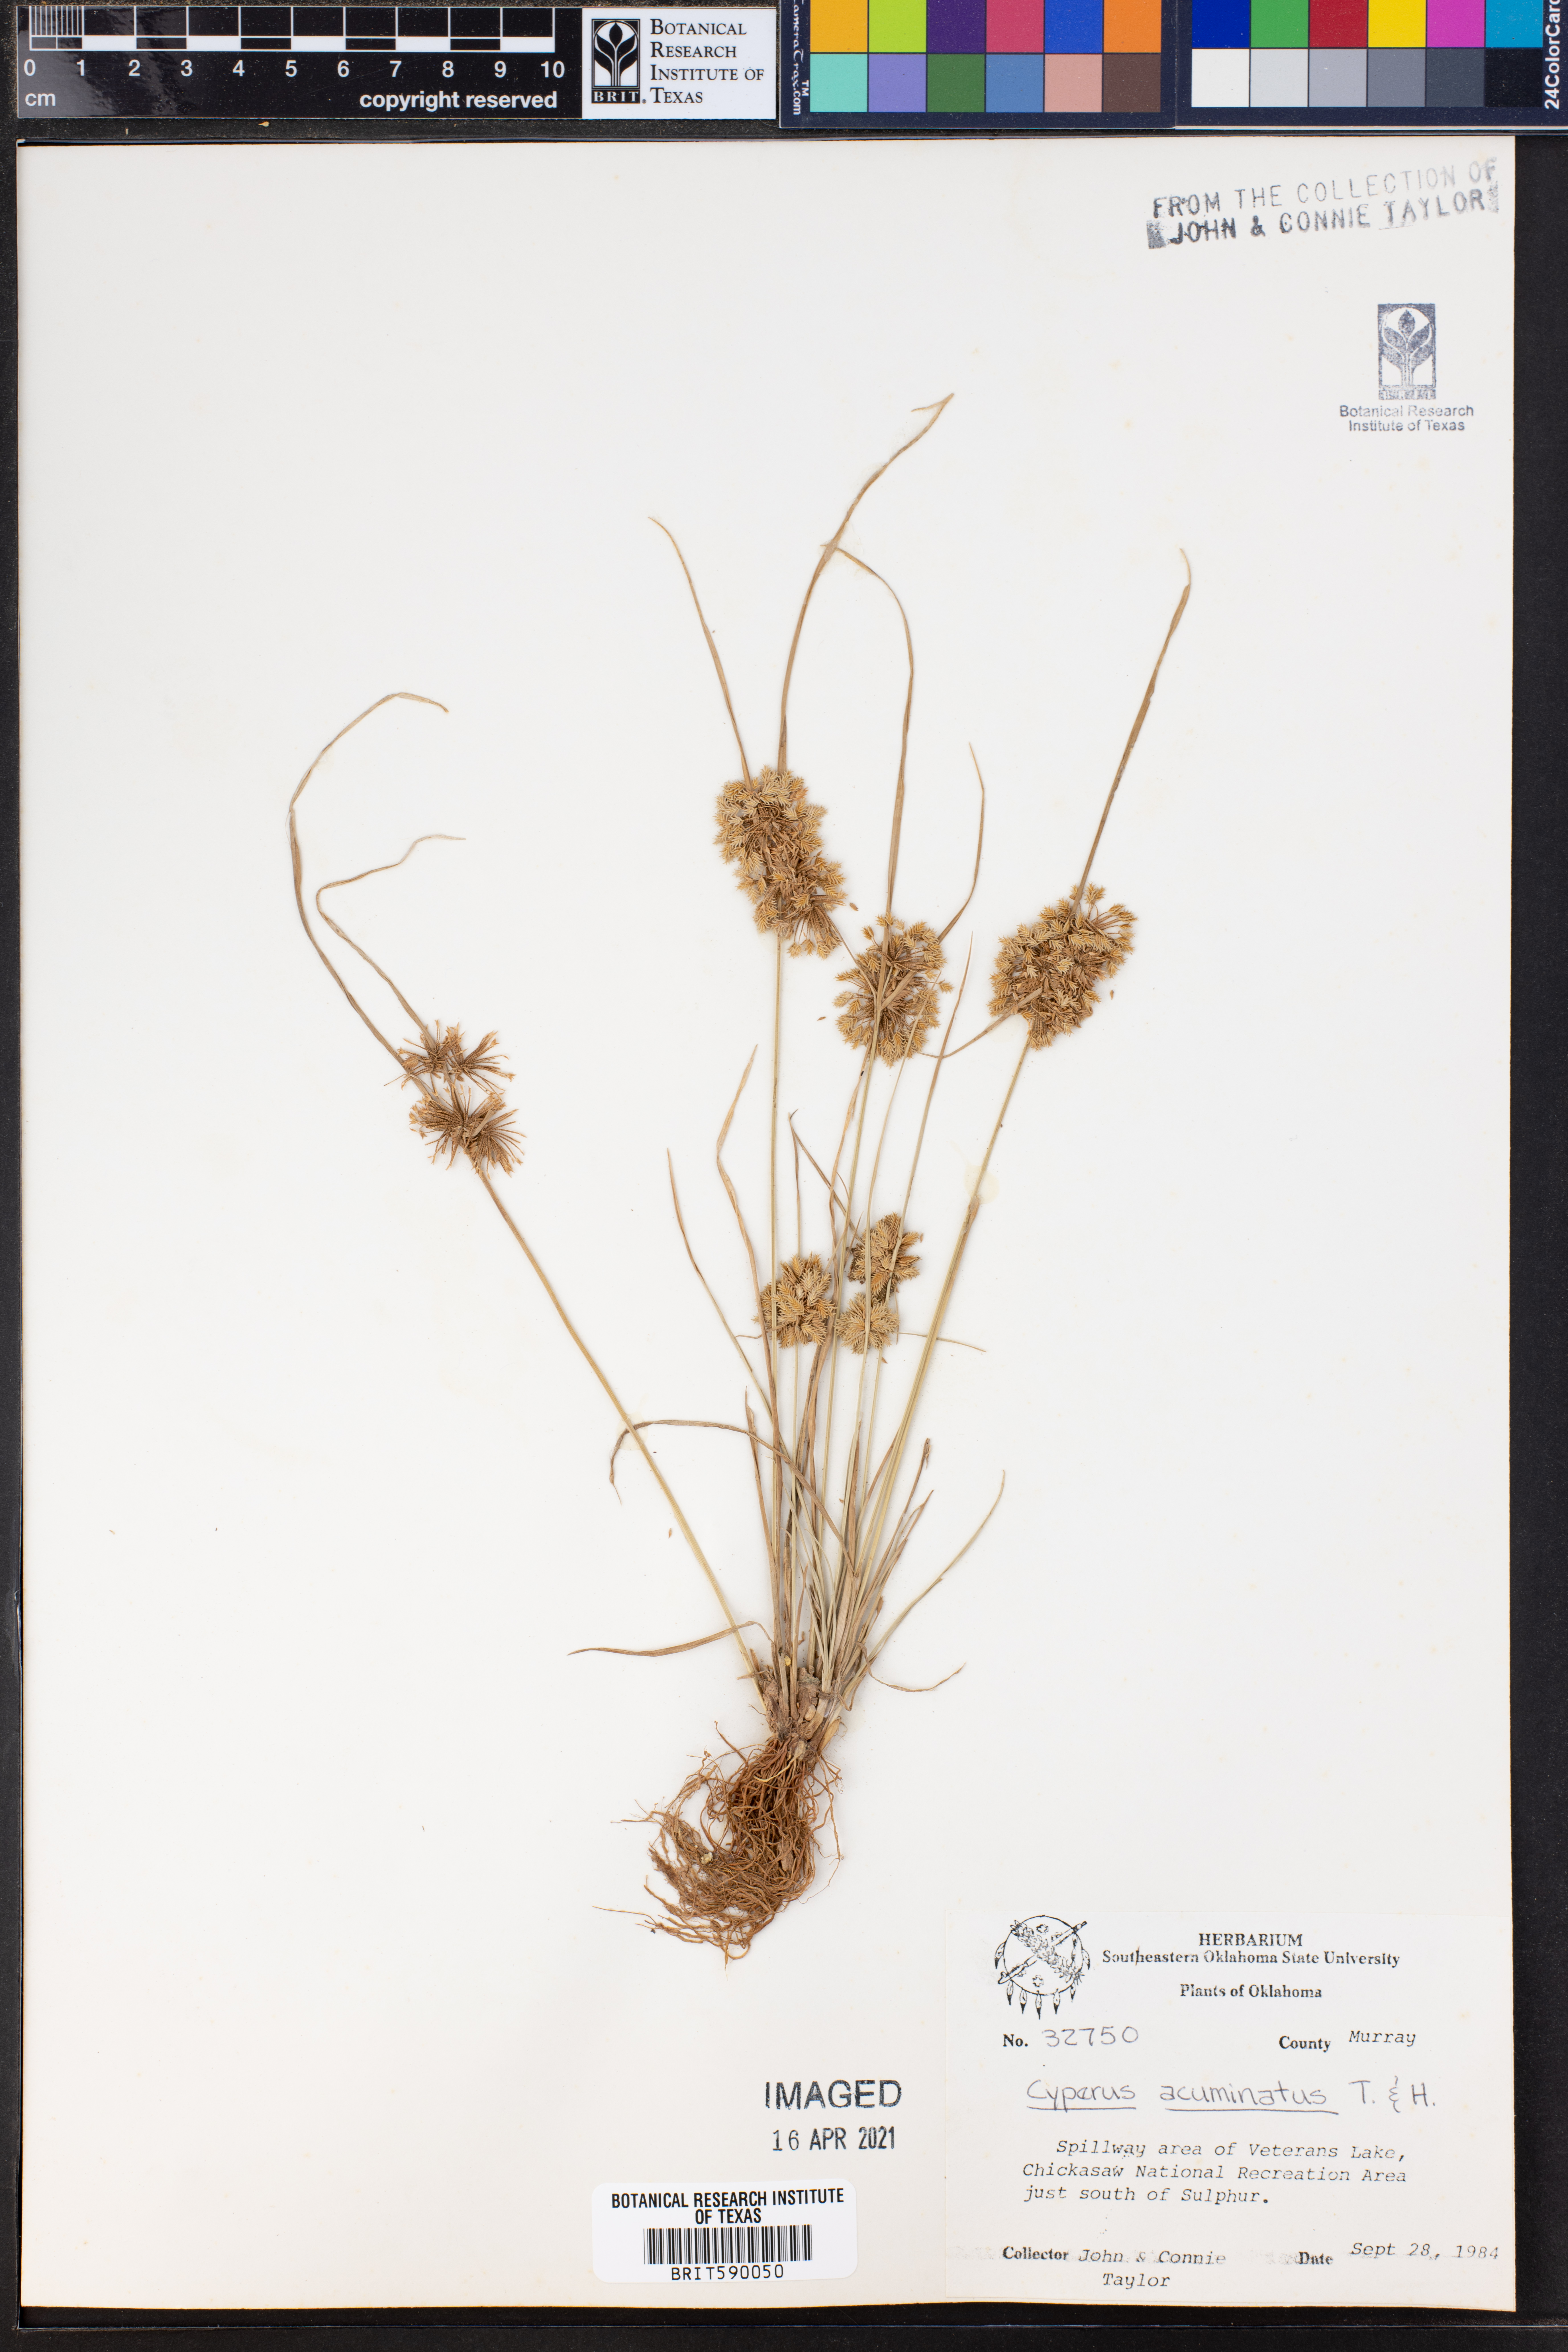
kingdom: Plantae
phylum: Tracheophyta
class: Liliopsida
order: Poales
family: Cyperaceae
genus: Cyperus
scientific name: Cyperus acuminatus
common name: Short-pointed cyperus
